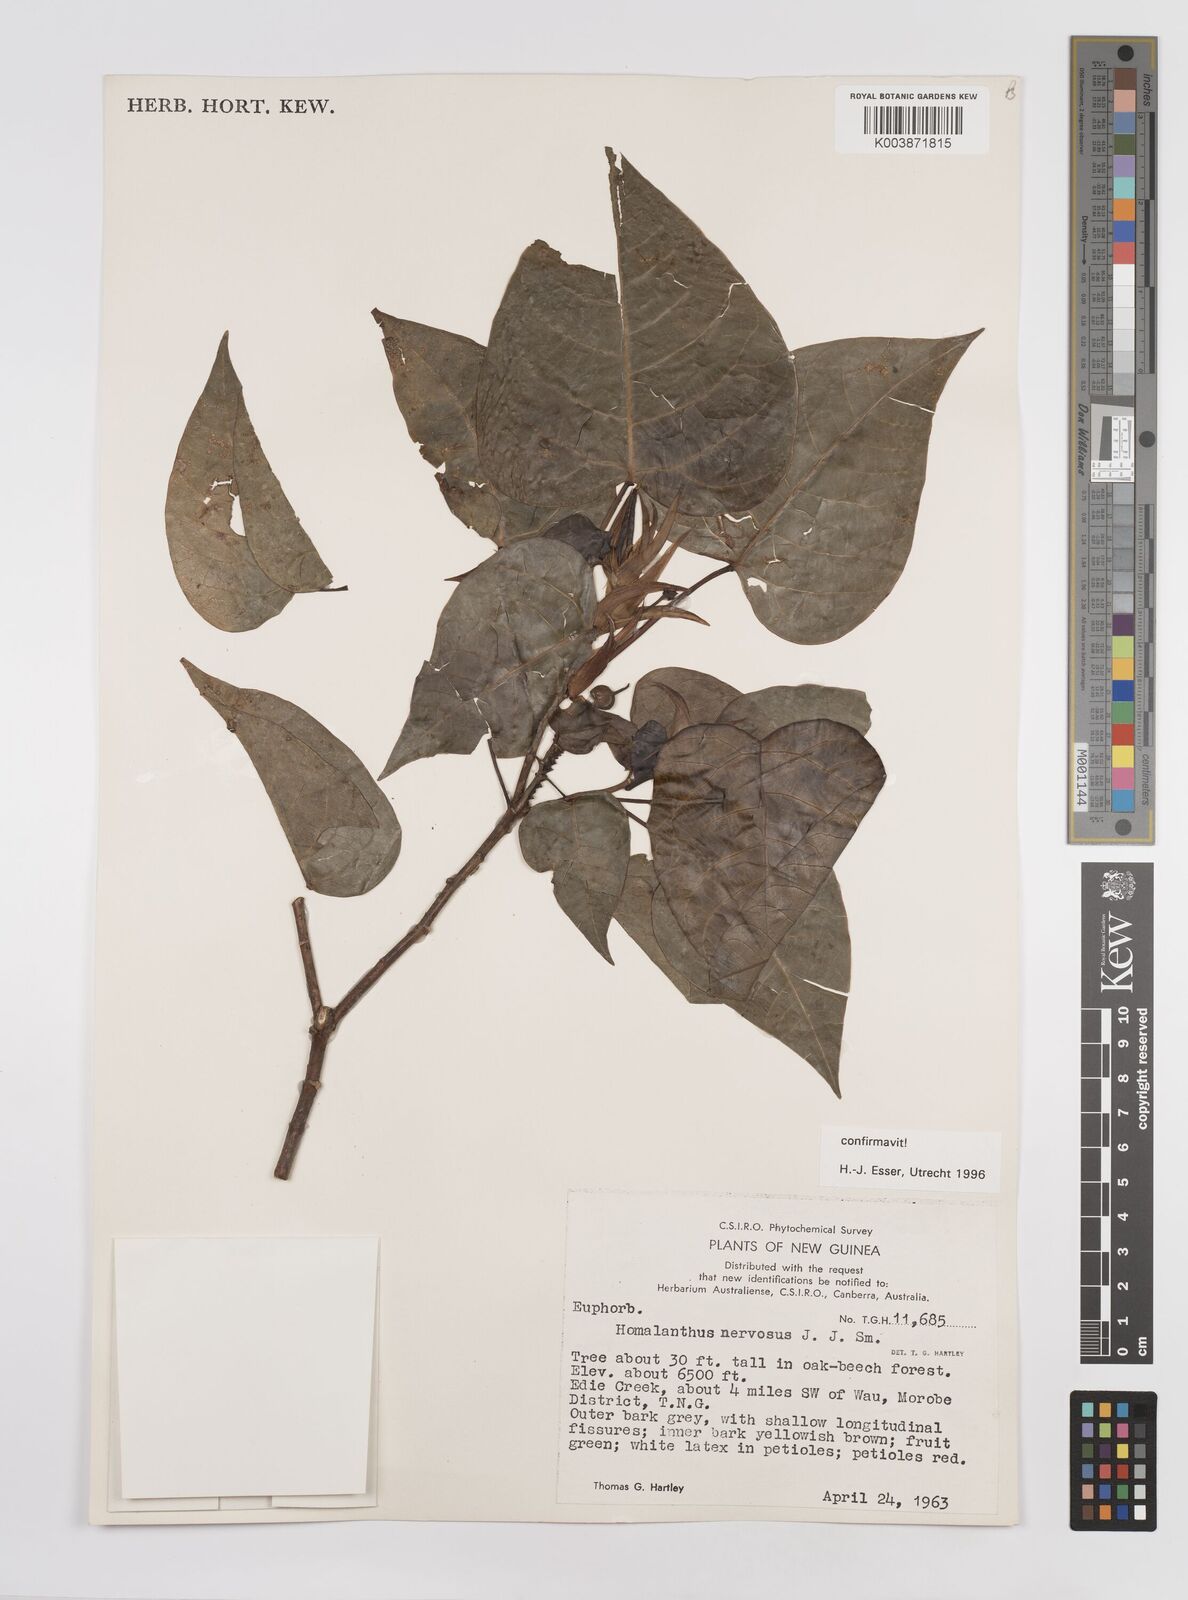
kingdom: Plantae
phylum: Tracheophyta
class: Magnoliopsida
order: Malpighiales
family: Euphorbiaceae
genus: Homalanthus
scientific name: Homalanthus nervosus
